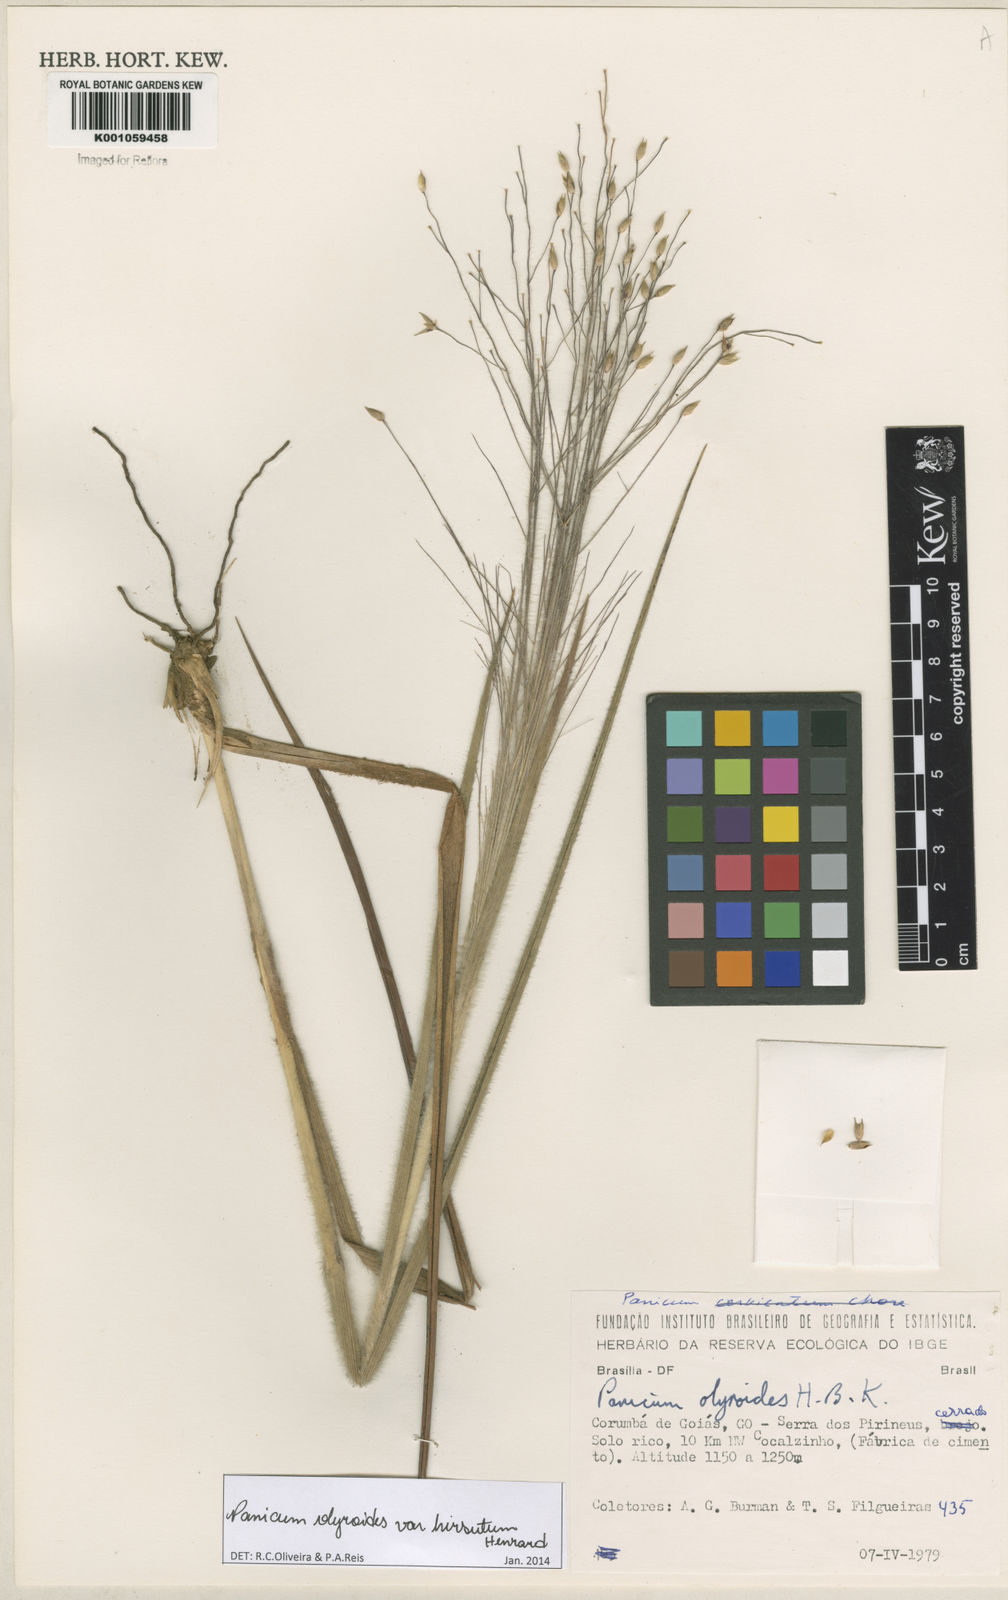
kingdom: Plantae
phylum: Tracheophyta
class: Liliopsida
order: Poales
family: Poaceae
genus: Panicum
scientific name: Panicum olyroides
